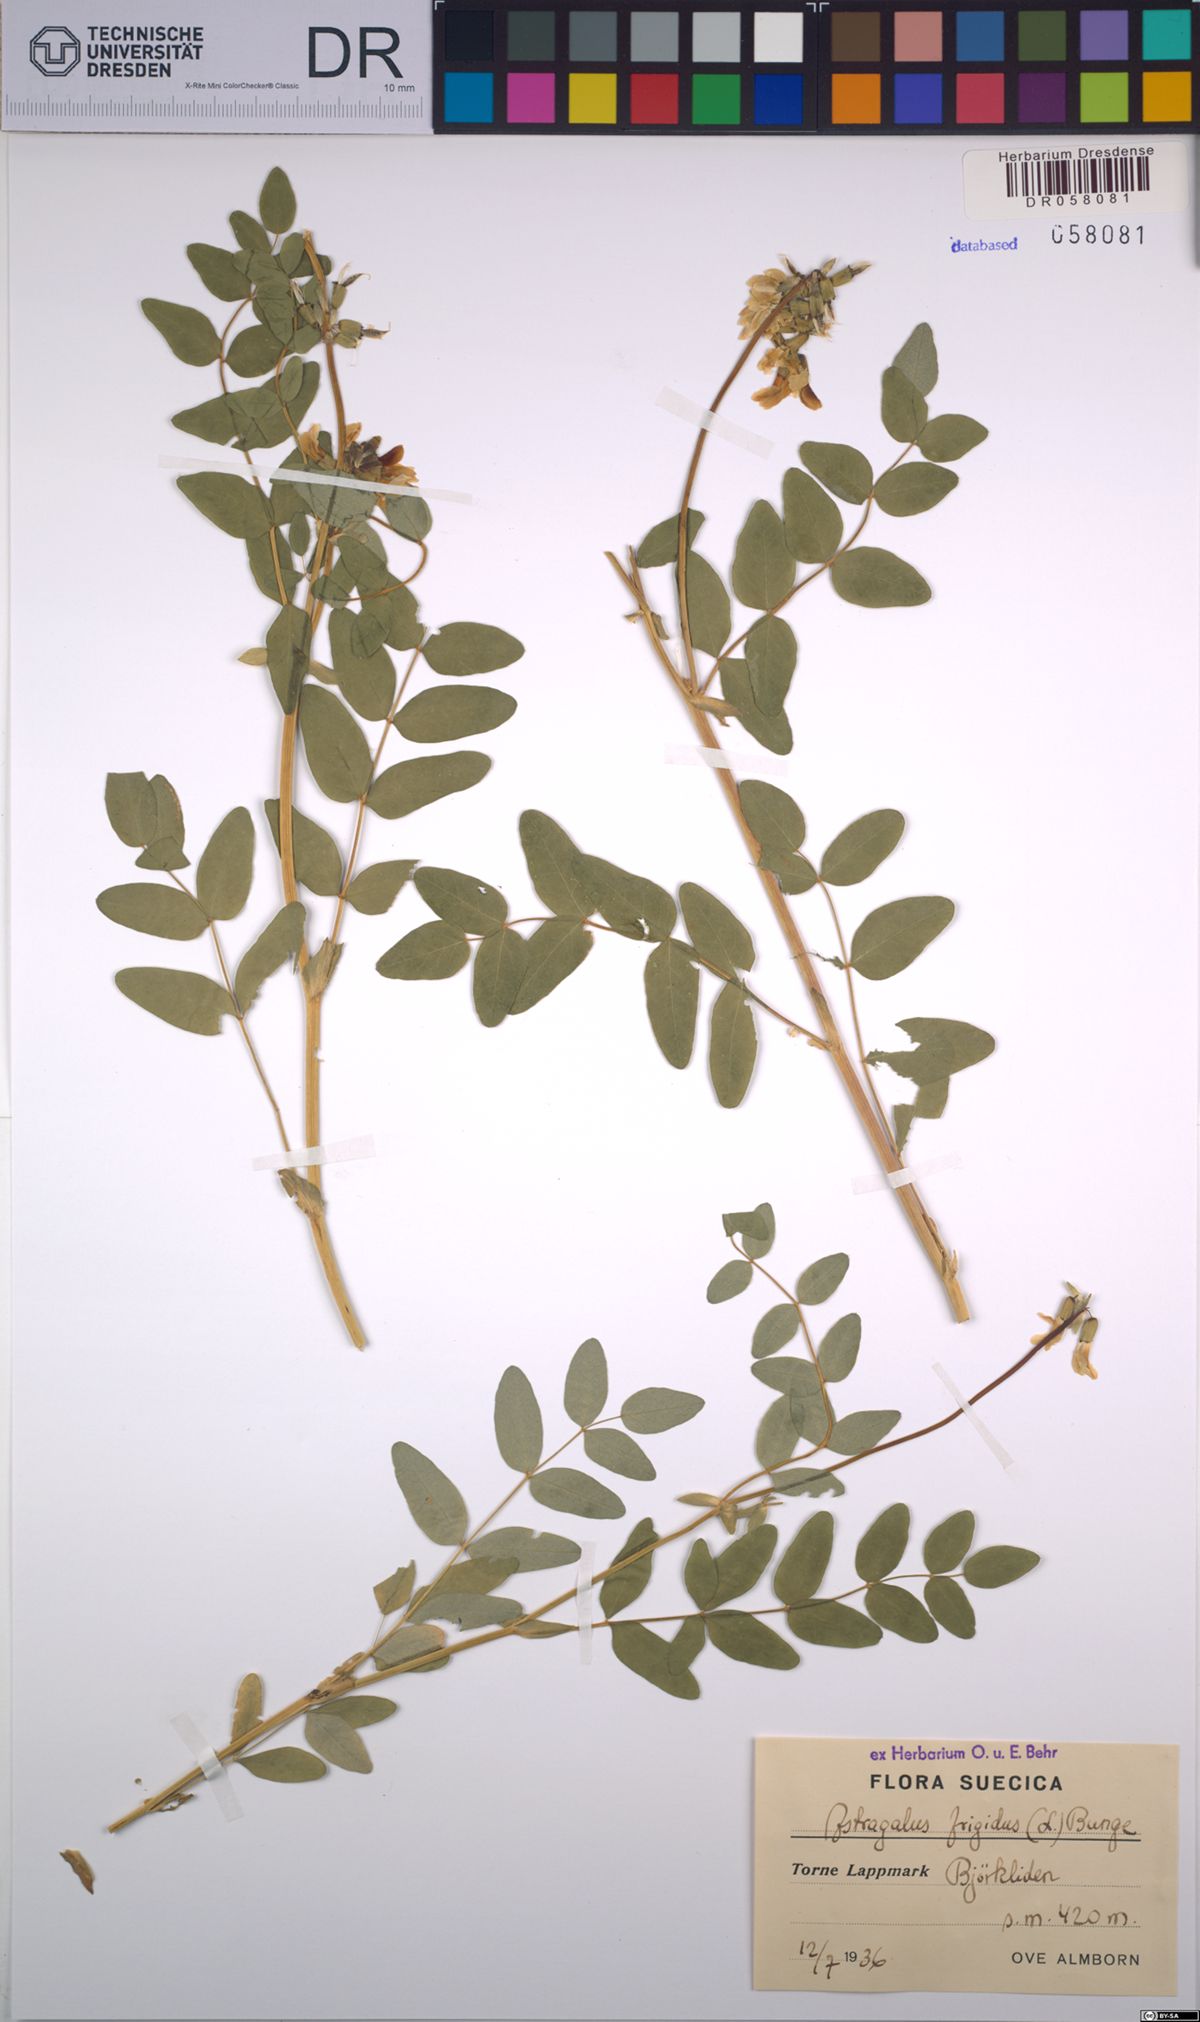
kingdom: Plantae
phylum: Tracheophyta
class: Magnoliopsida
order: Fabales
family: Fabaceae
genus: Astragalus
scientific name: Astragalus frigidus
